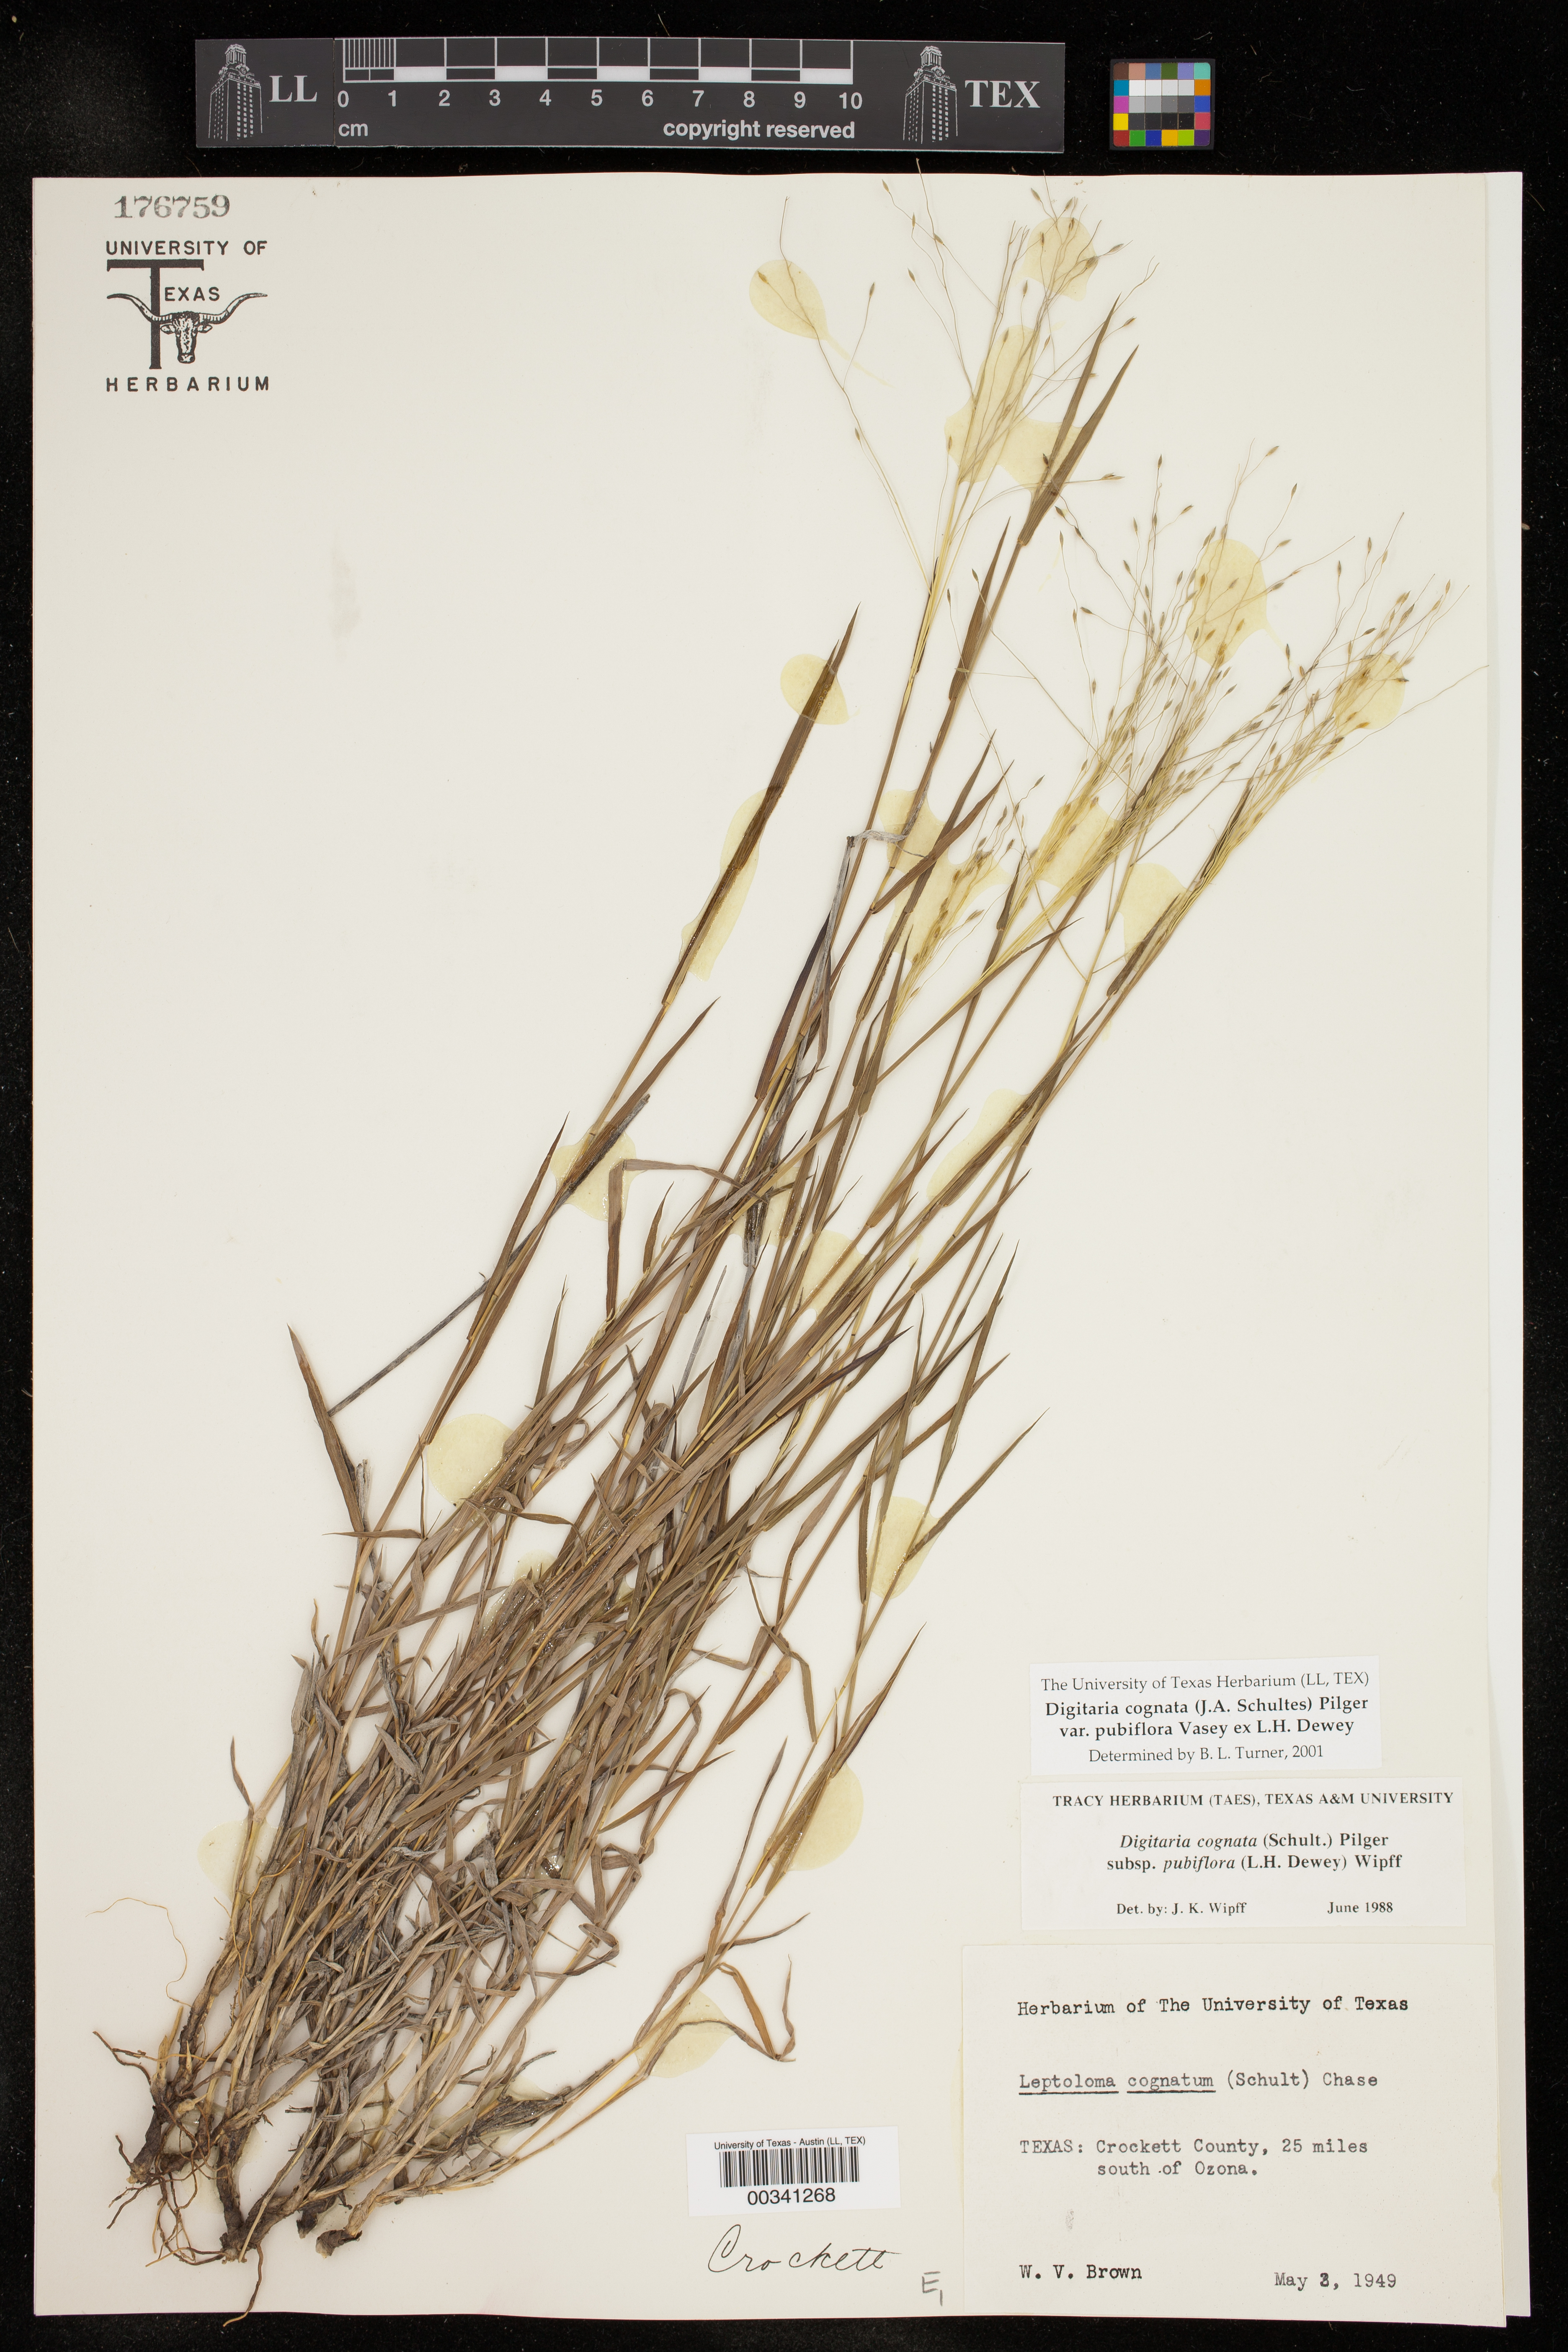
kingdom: Plantae
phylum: Tracheophyta
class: Liliopsida
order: Poales
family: Poaceae
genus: Digitaria
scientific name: Digitaria cognata
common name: Fall witchgrass
